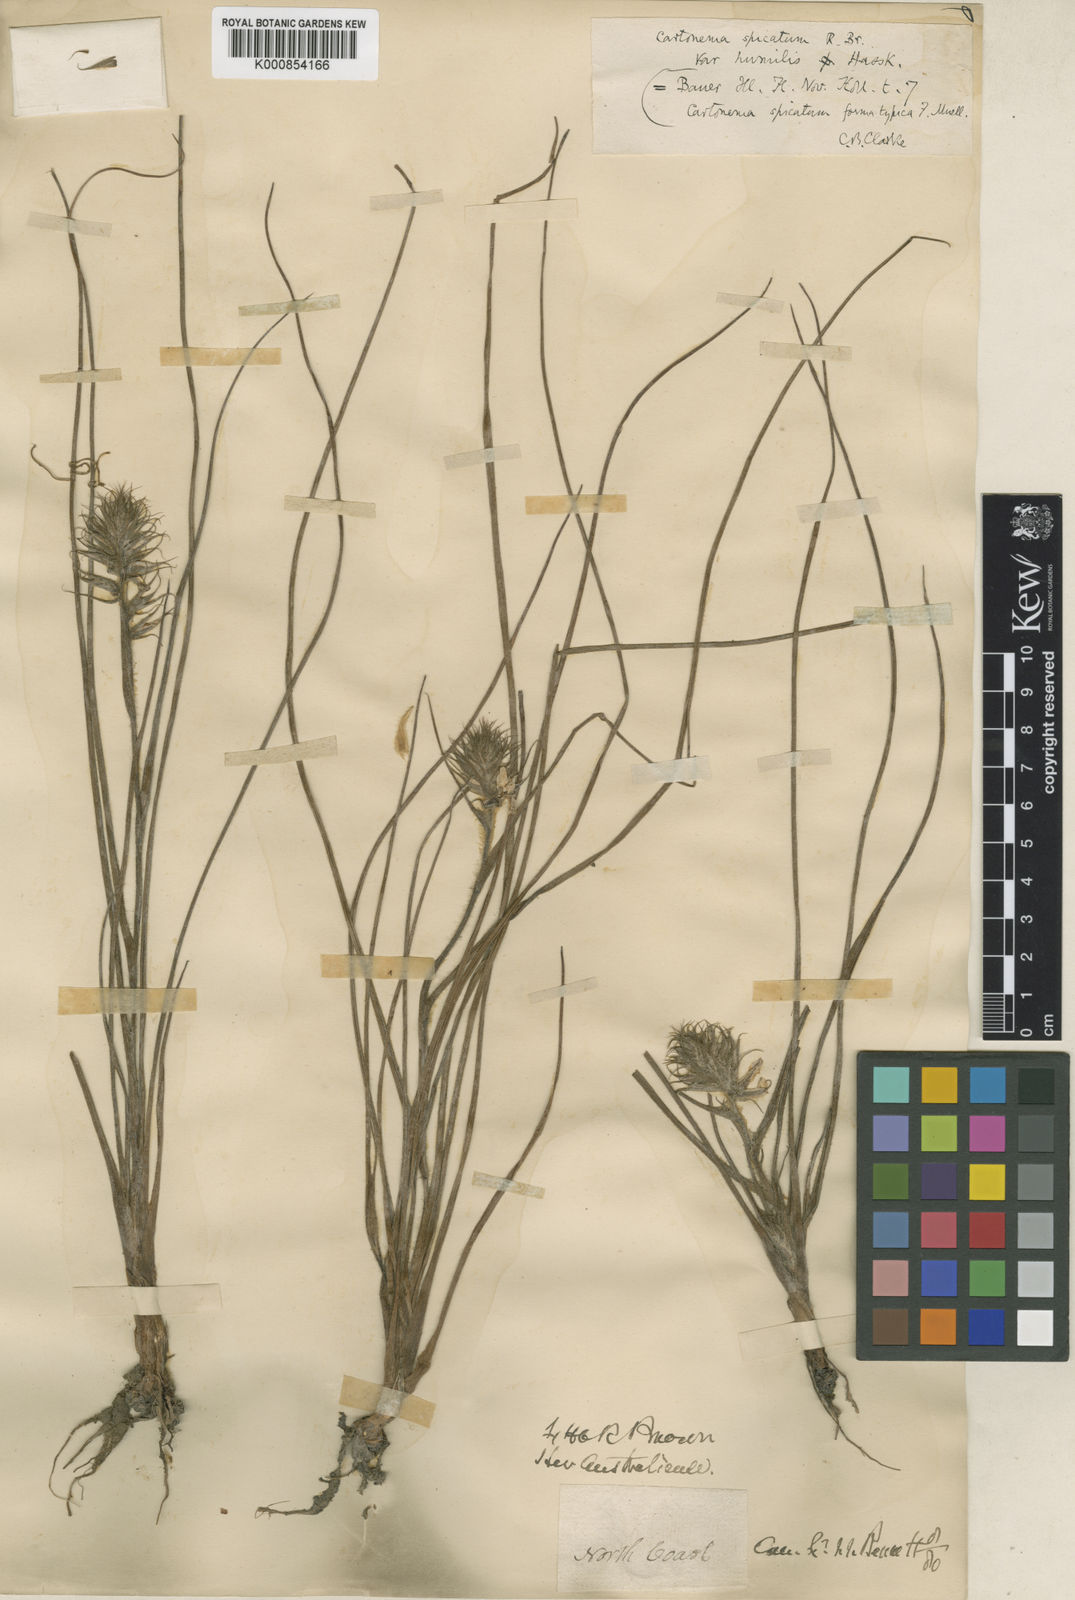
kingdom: Plantae
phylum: Tracheophyta
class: Liliopsida
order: Commelinales
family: Commelinaceae
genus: Cartonema
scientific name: Cartonema spicatum
